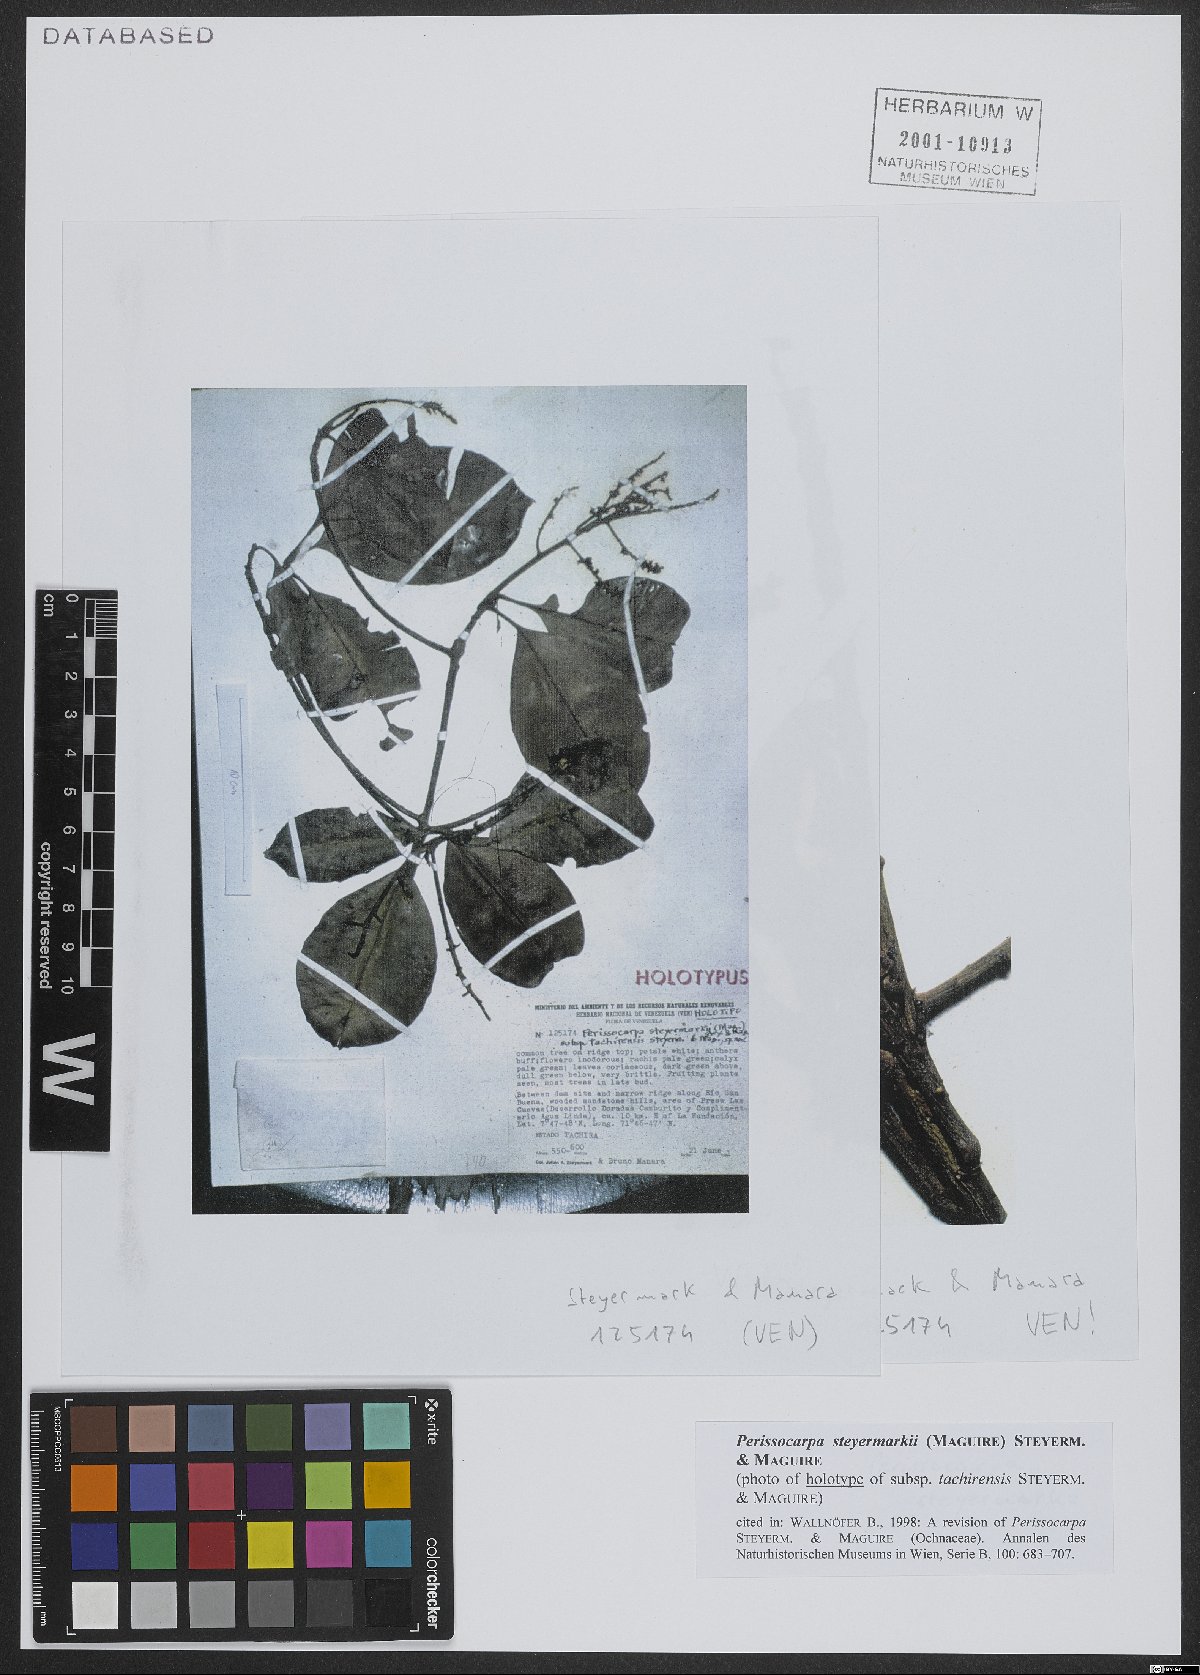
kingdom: Plantae
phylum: Tracheophyta
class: Magnoliopsida
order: Malpighiales
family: Ochnaceae
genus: Perissocarpa
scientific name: Perissocarpa steyermarkii
